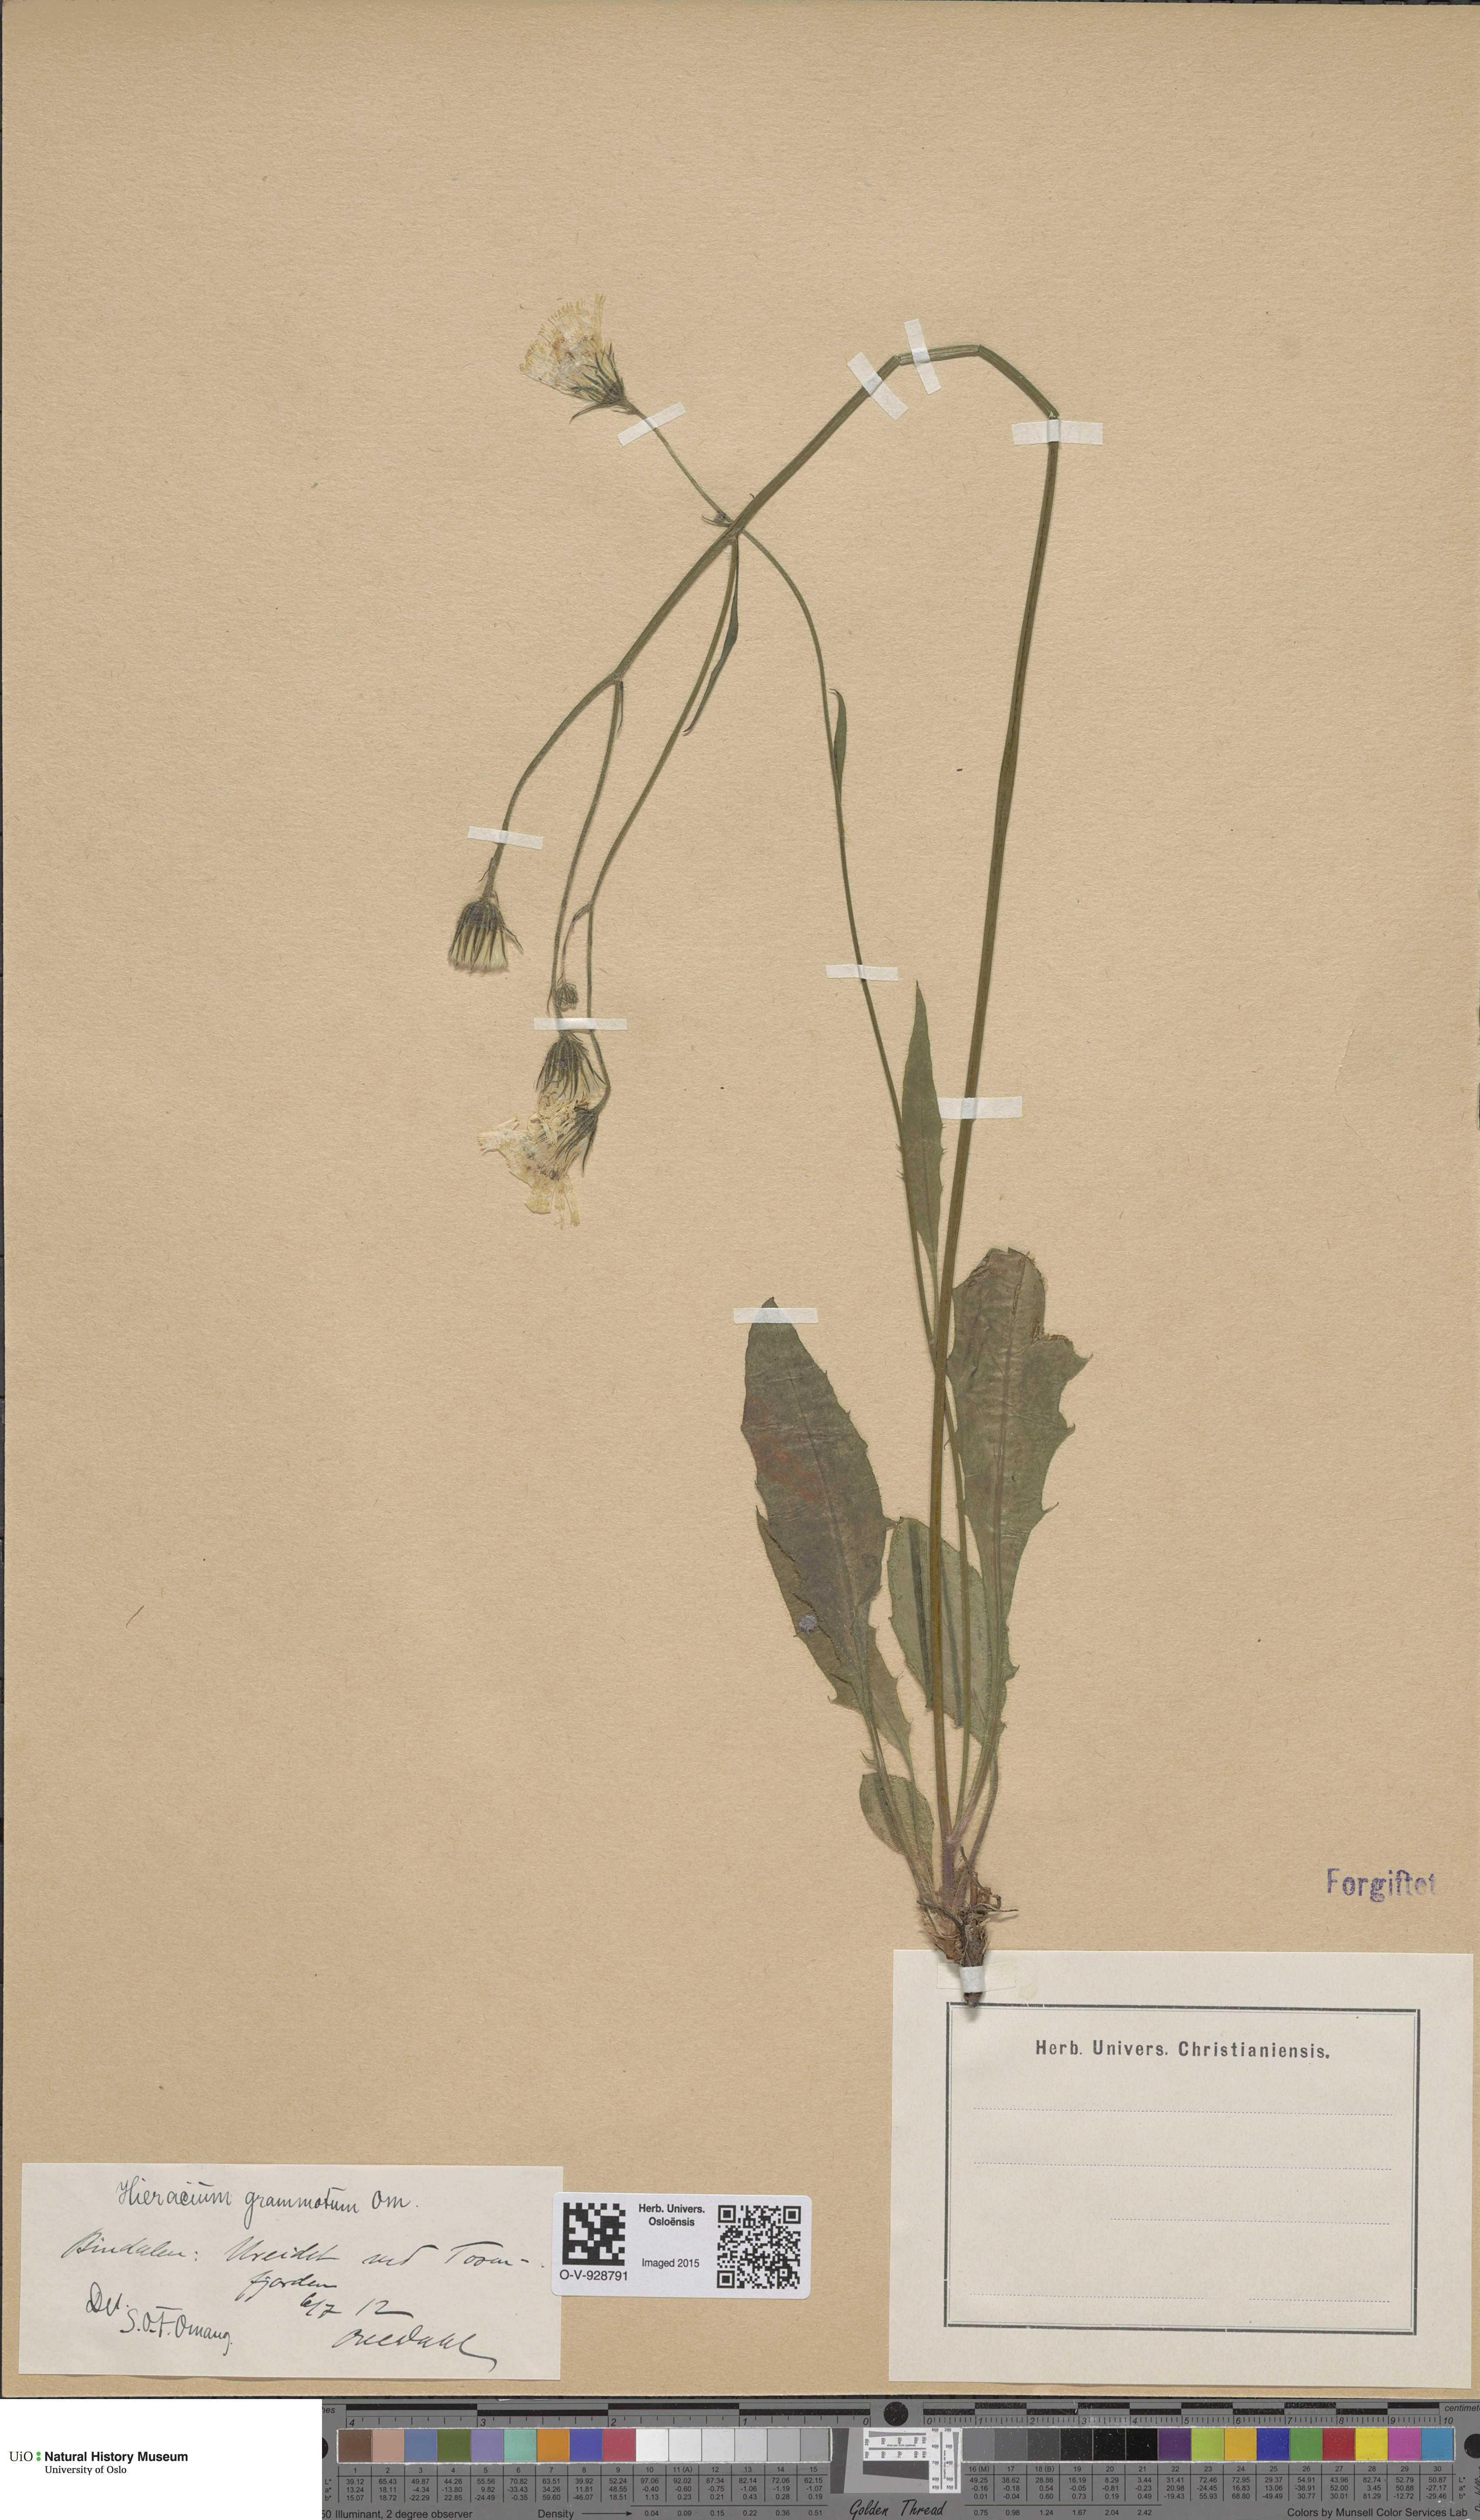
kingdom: Plantae
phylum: Tracheophyta
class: Magnoliopsida
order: Asterales
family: Asteraceae
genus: Hieracium
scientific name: Hieracium
